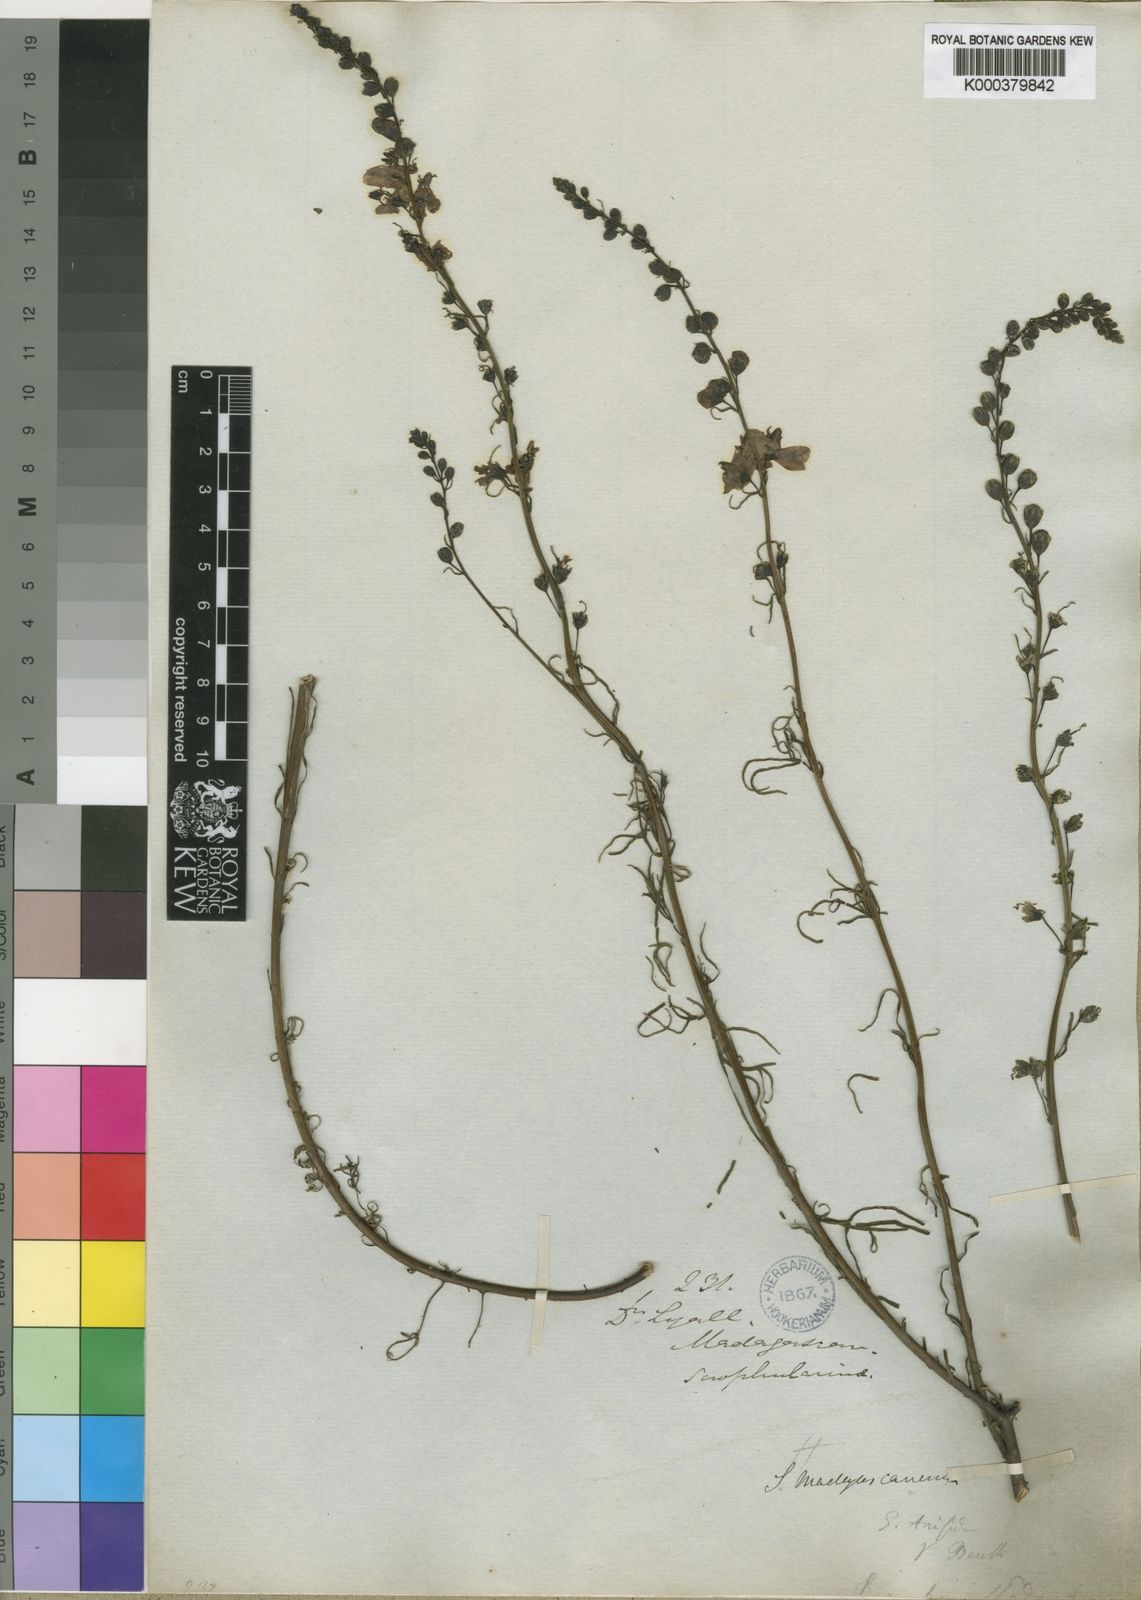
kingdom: Plantae
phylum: Tracheophyta
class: Magnoliopsida
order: Lamiales
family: Orobanchaceae
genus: Sopubia
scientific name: Sopubia
